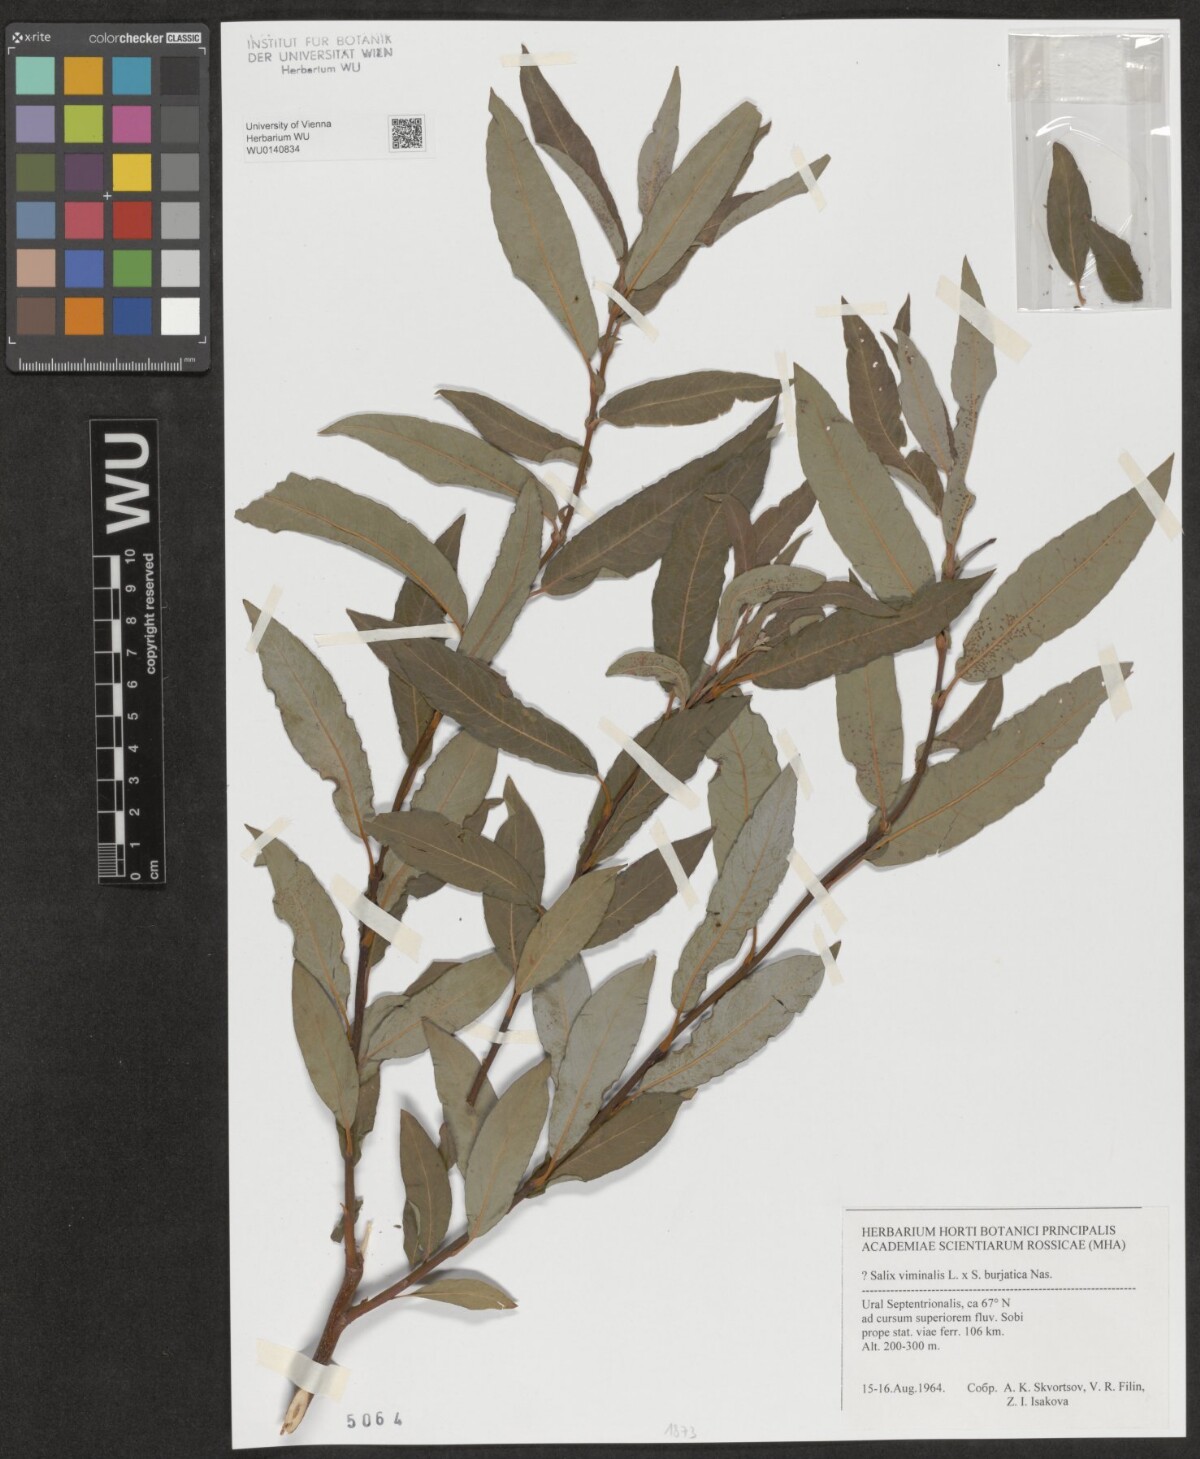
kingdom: Plantae
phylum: Tracheophyta
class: Magnoliopsida
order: Malpighiales
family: Salicaceae
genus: Salix
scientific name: Salix viminalis
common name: Osier
